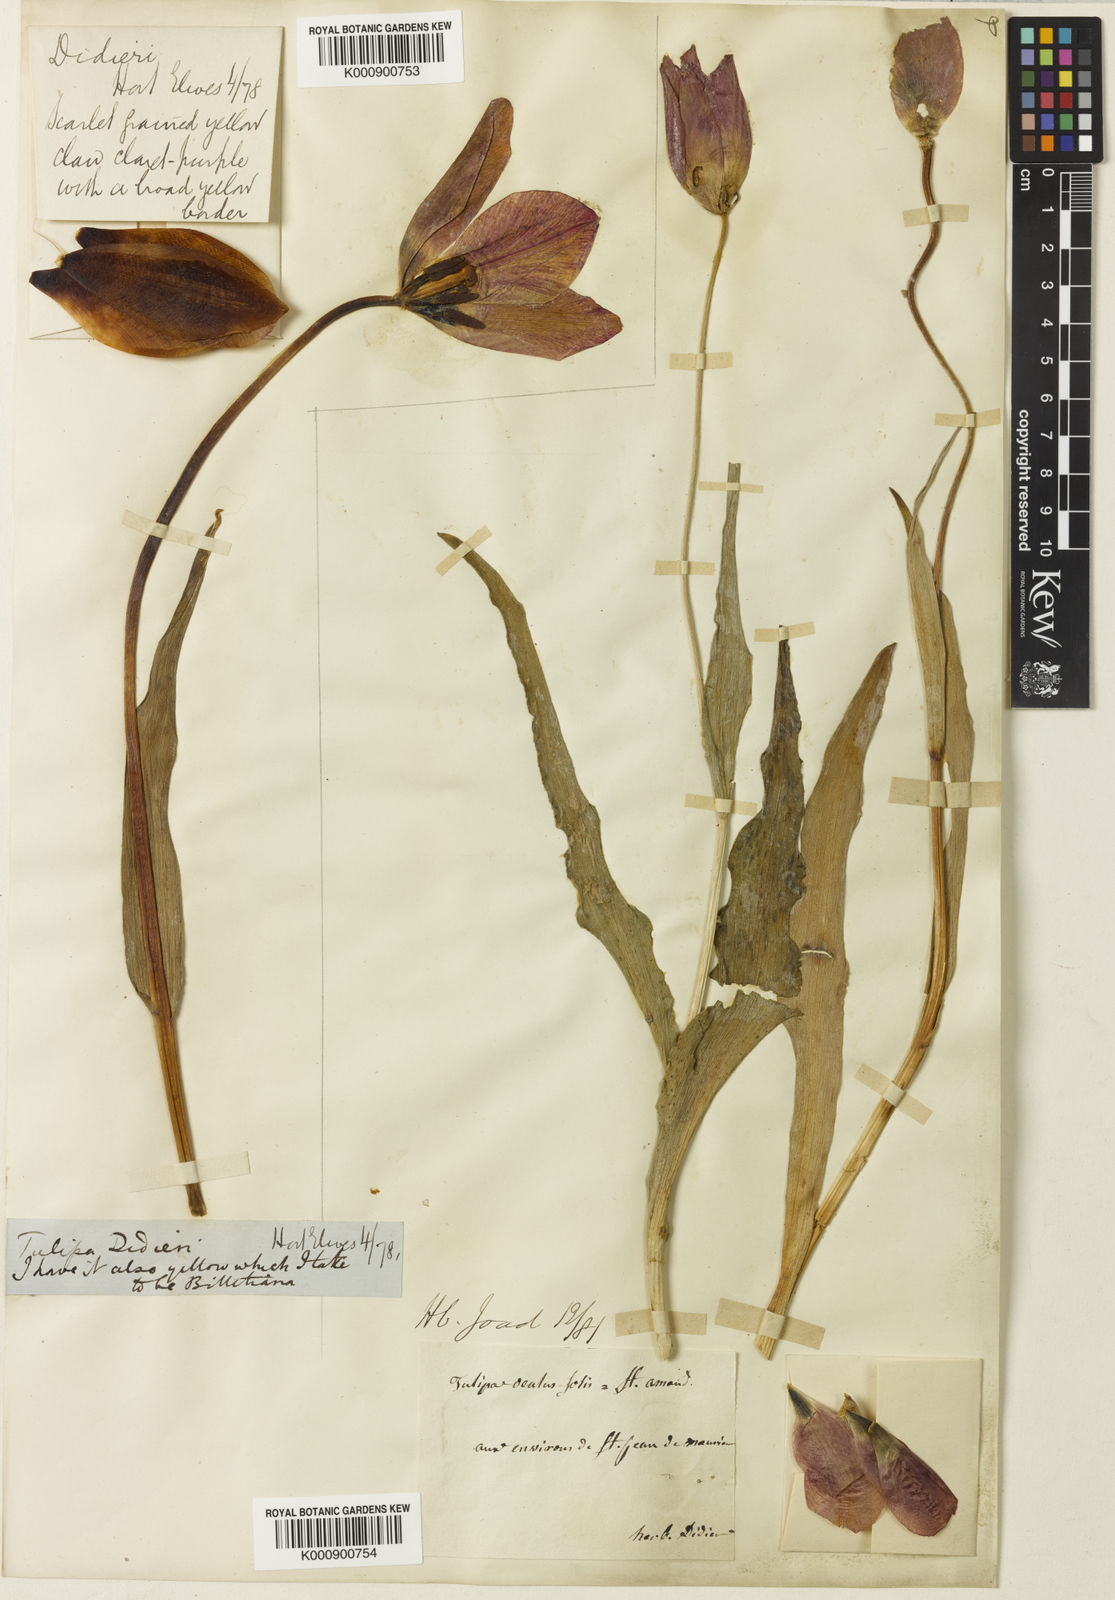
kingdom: Plantae
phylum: Tracheophyta
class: Liliopsida
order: Liliales
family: Liliaceae
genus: Tulipa
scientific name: Tulipa gesneriana
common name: Garden tulip
